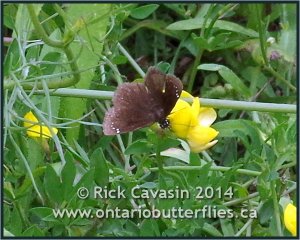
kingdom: Animalia
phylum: Arthropoda
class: Insecta
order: Lepidoptera
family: Hesperiidae
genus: Pholisora
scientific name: Pholisora catullus
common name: Common Sootywing
